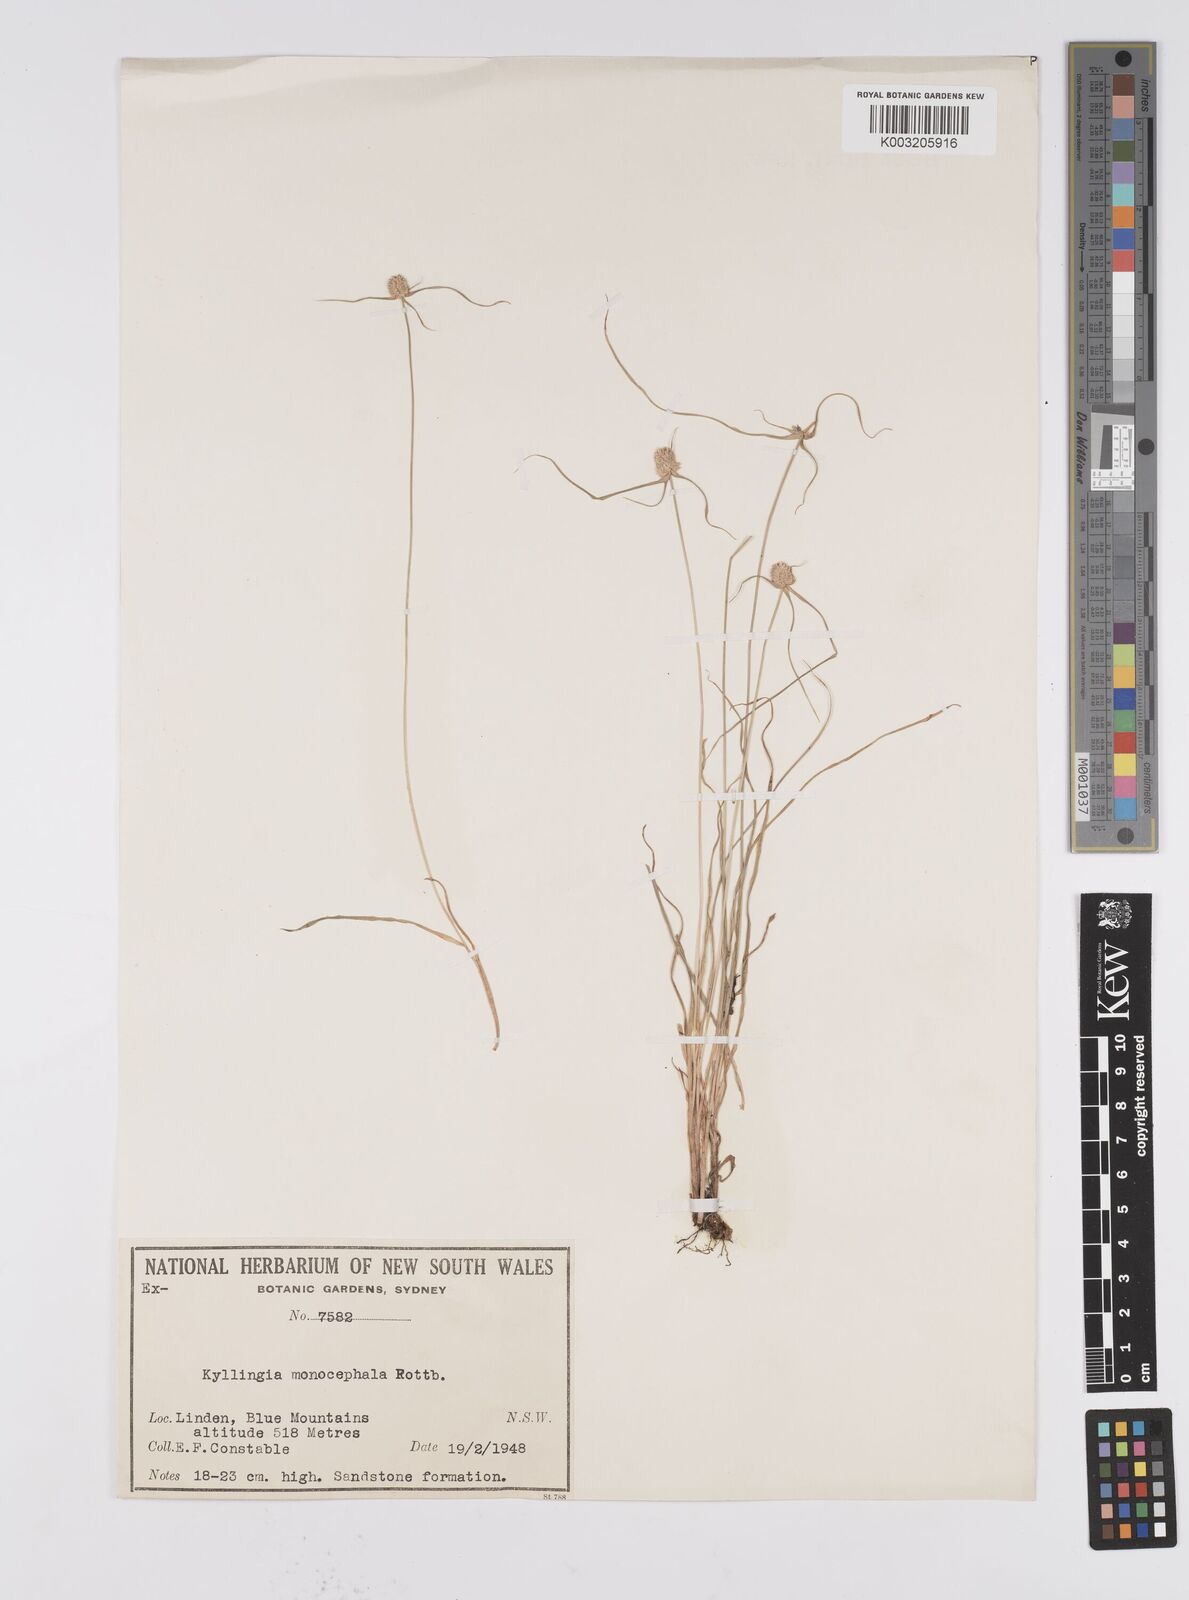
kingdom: Plantae
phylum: Tracheophyta
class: Liliopsida
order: Poales
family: Cyperaceae
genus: Cyperus
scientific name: Cyperus
